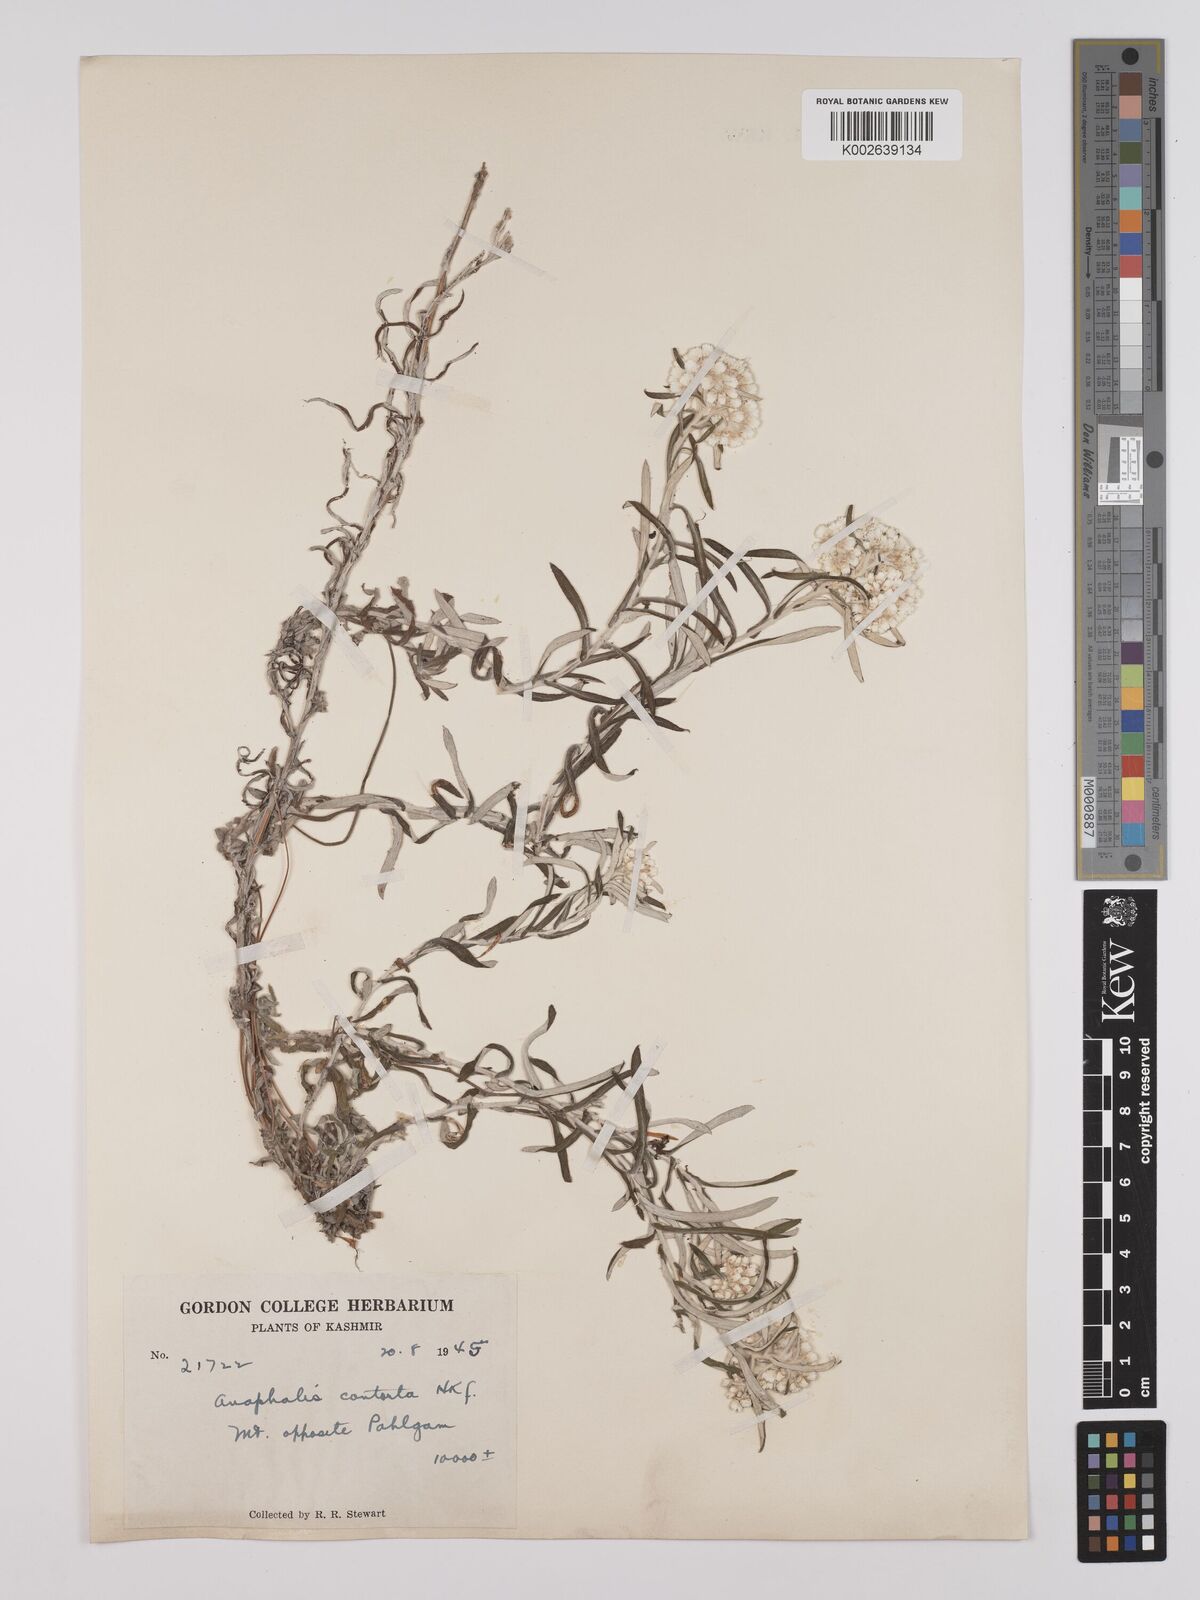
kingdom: Plantae
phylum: Tracheophyta
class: Magnoliopsida
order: Asterales
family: Asteraceae
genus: Anaphalis
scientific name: Anaphalis contorta
